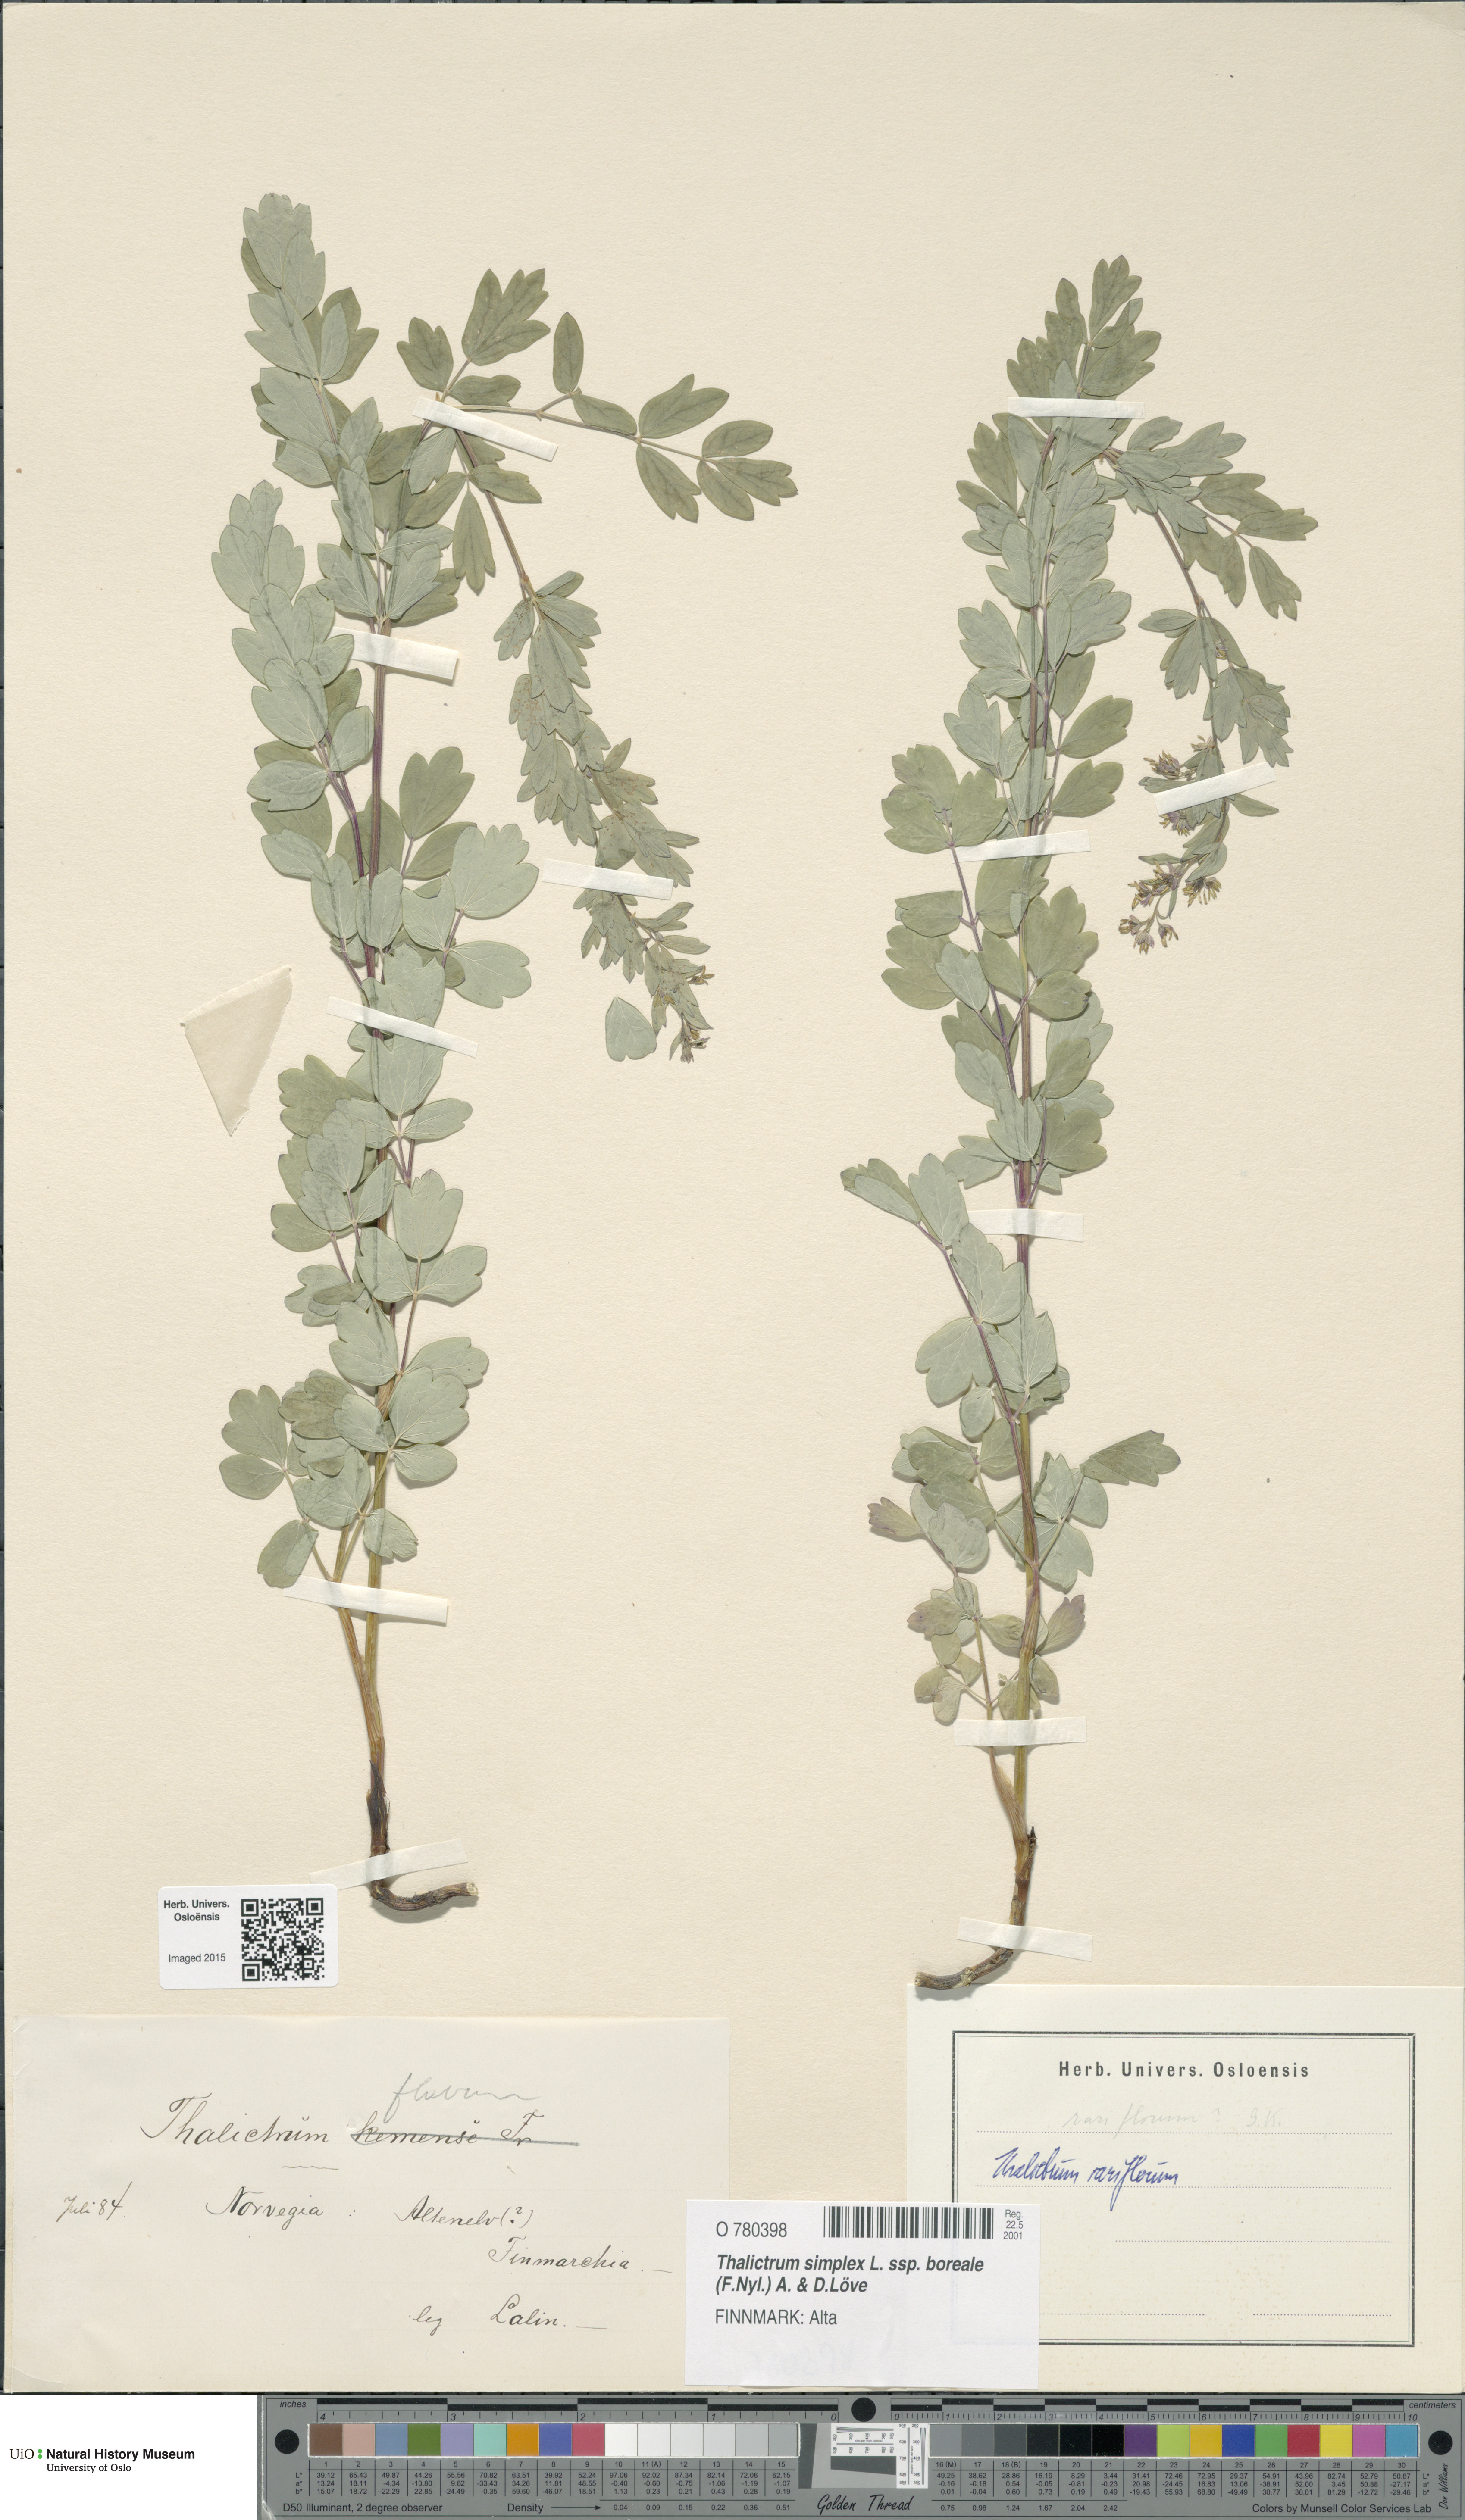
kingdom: Plantae
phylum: Tracheophyta
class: Magnoliopsida
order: Ranunculales
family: Ranunculaceae
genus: Thalictrum
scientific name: Thalictrum simplex
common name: Small meadow-rue
